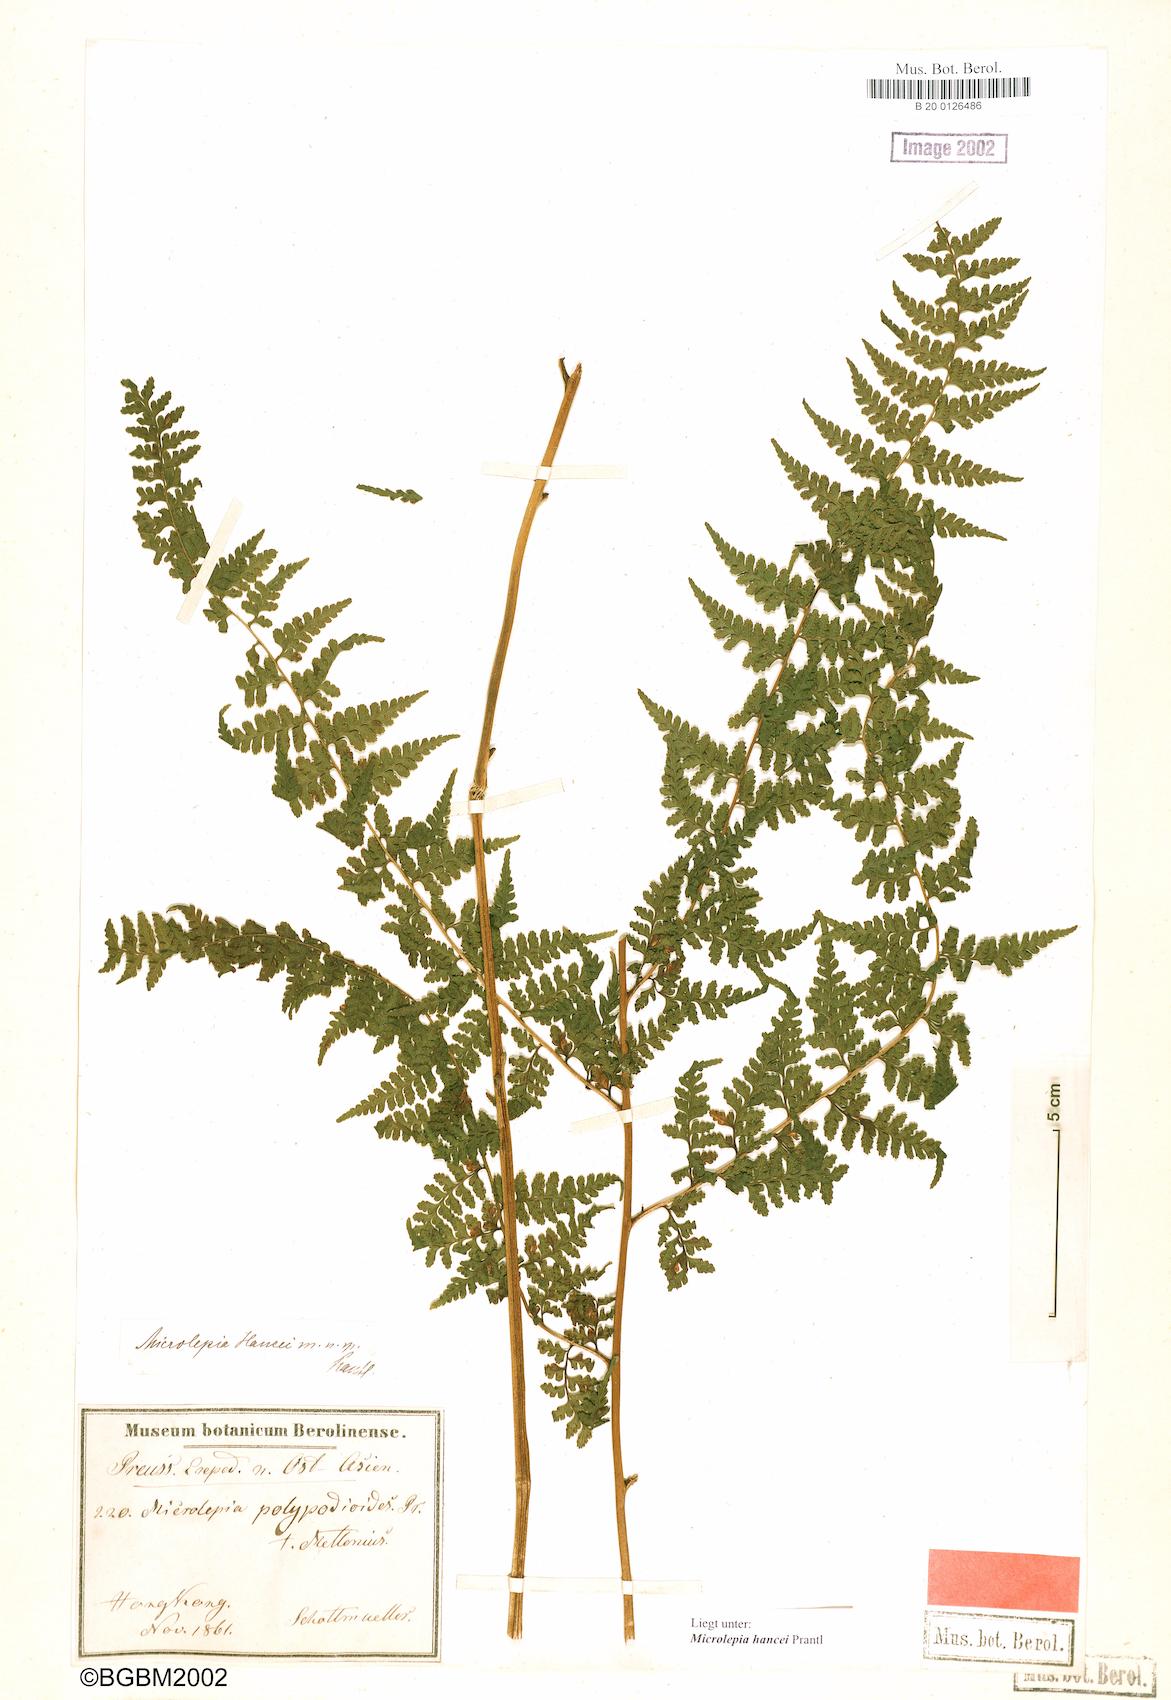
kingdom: Plantae
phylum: Tracheophyta
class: Polypodiopsida
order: Polypodiales
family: Dennstaedtiaceae
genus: Microlepia
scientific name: Microlepia nepalensis
